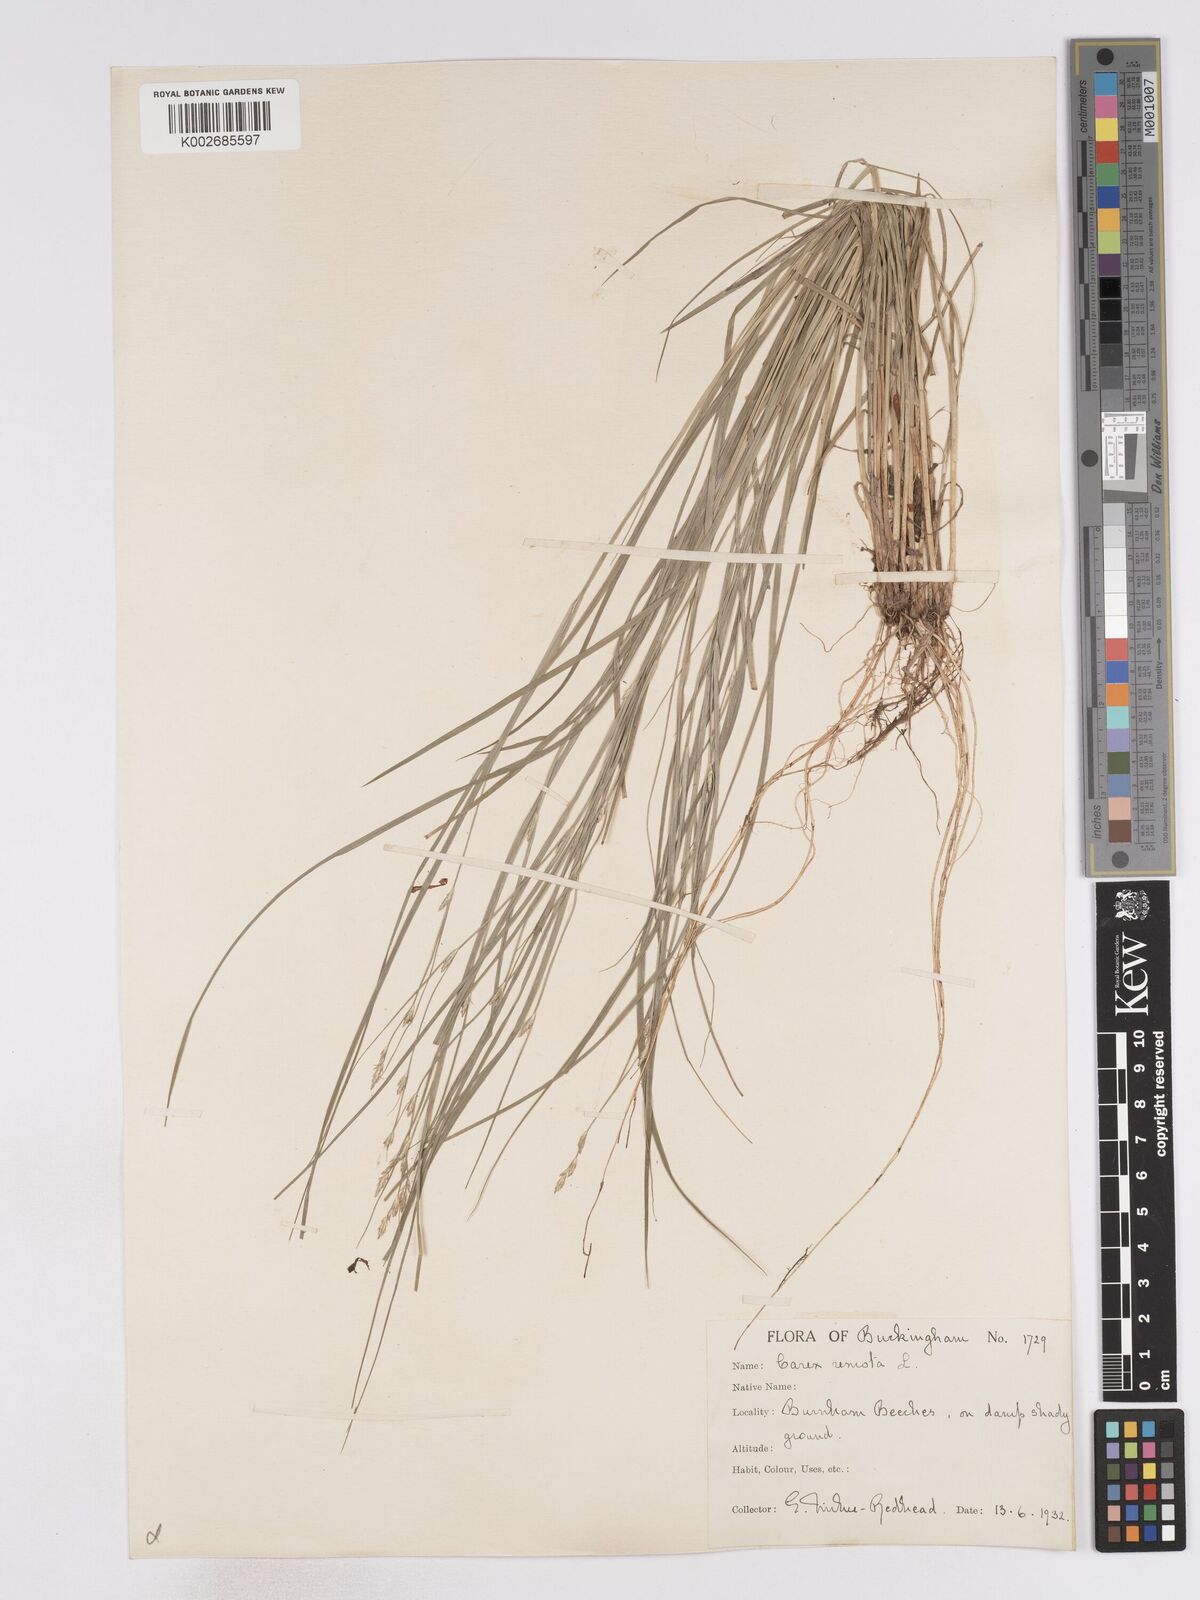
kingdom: Plantae
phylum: Tracheophyta
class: Liliopsida
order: Poales
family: Cyperaceae
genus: Carex
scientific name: Carex remota
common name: Remote sedge
